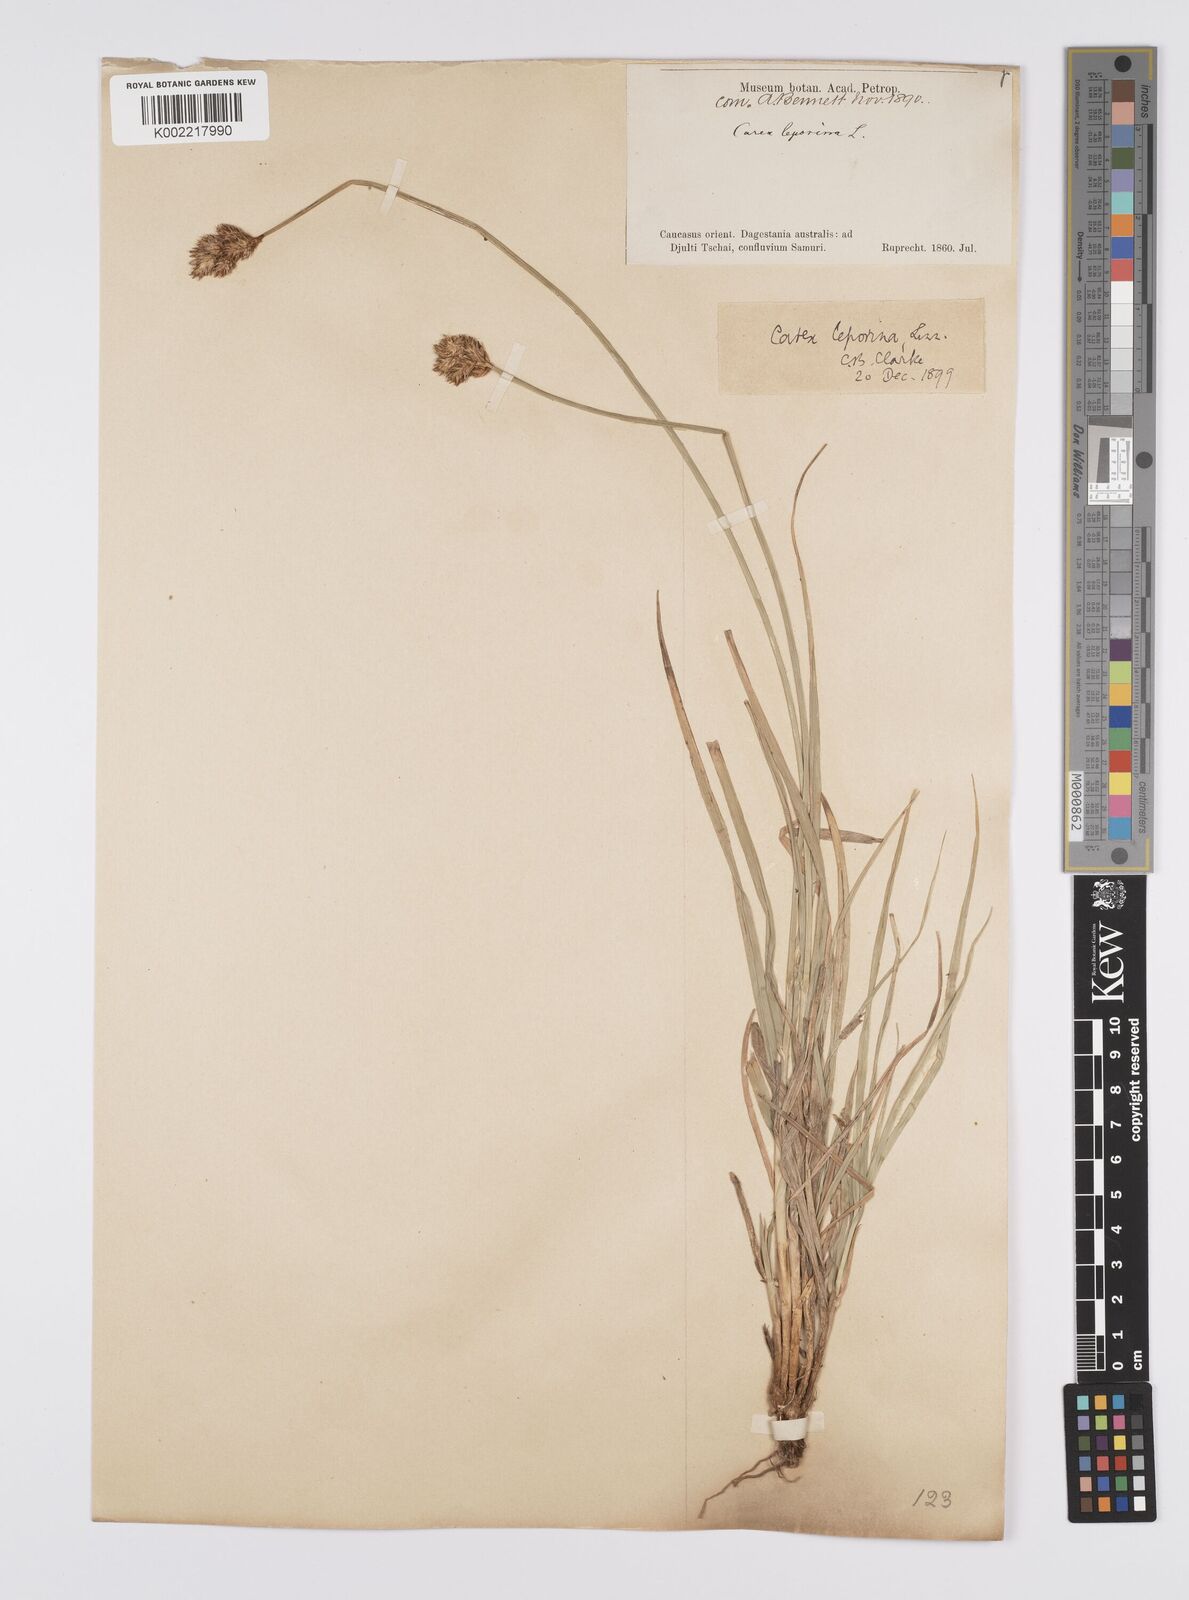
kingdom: Plantae
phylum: Tracheophyta
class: Liliopsida
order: Poales
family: Cyperaceae
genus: Carex
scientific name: Carex leporina
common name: Oval sedge
